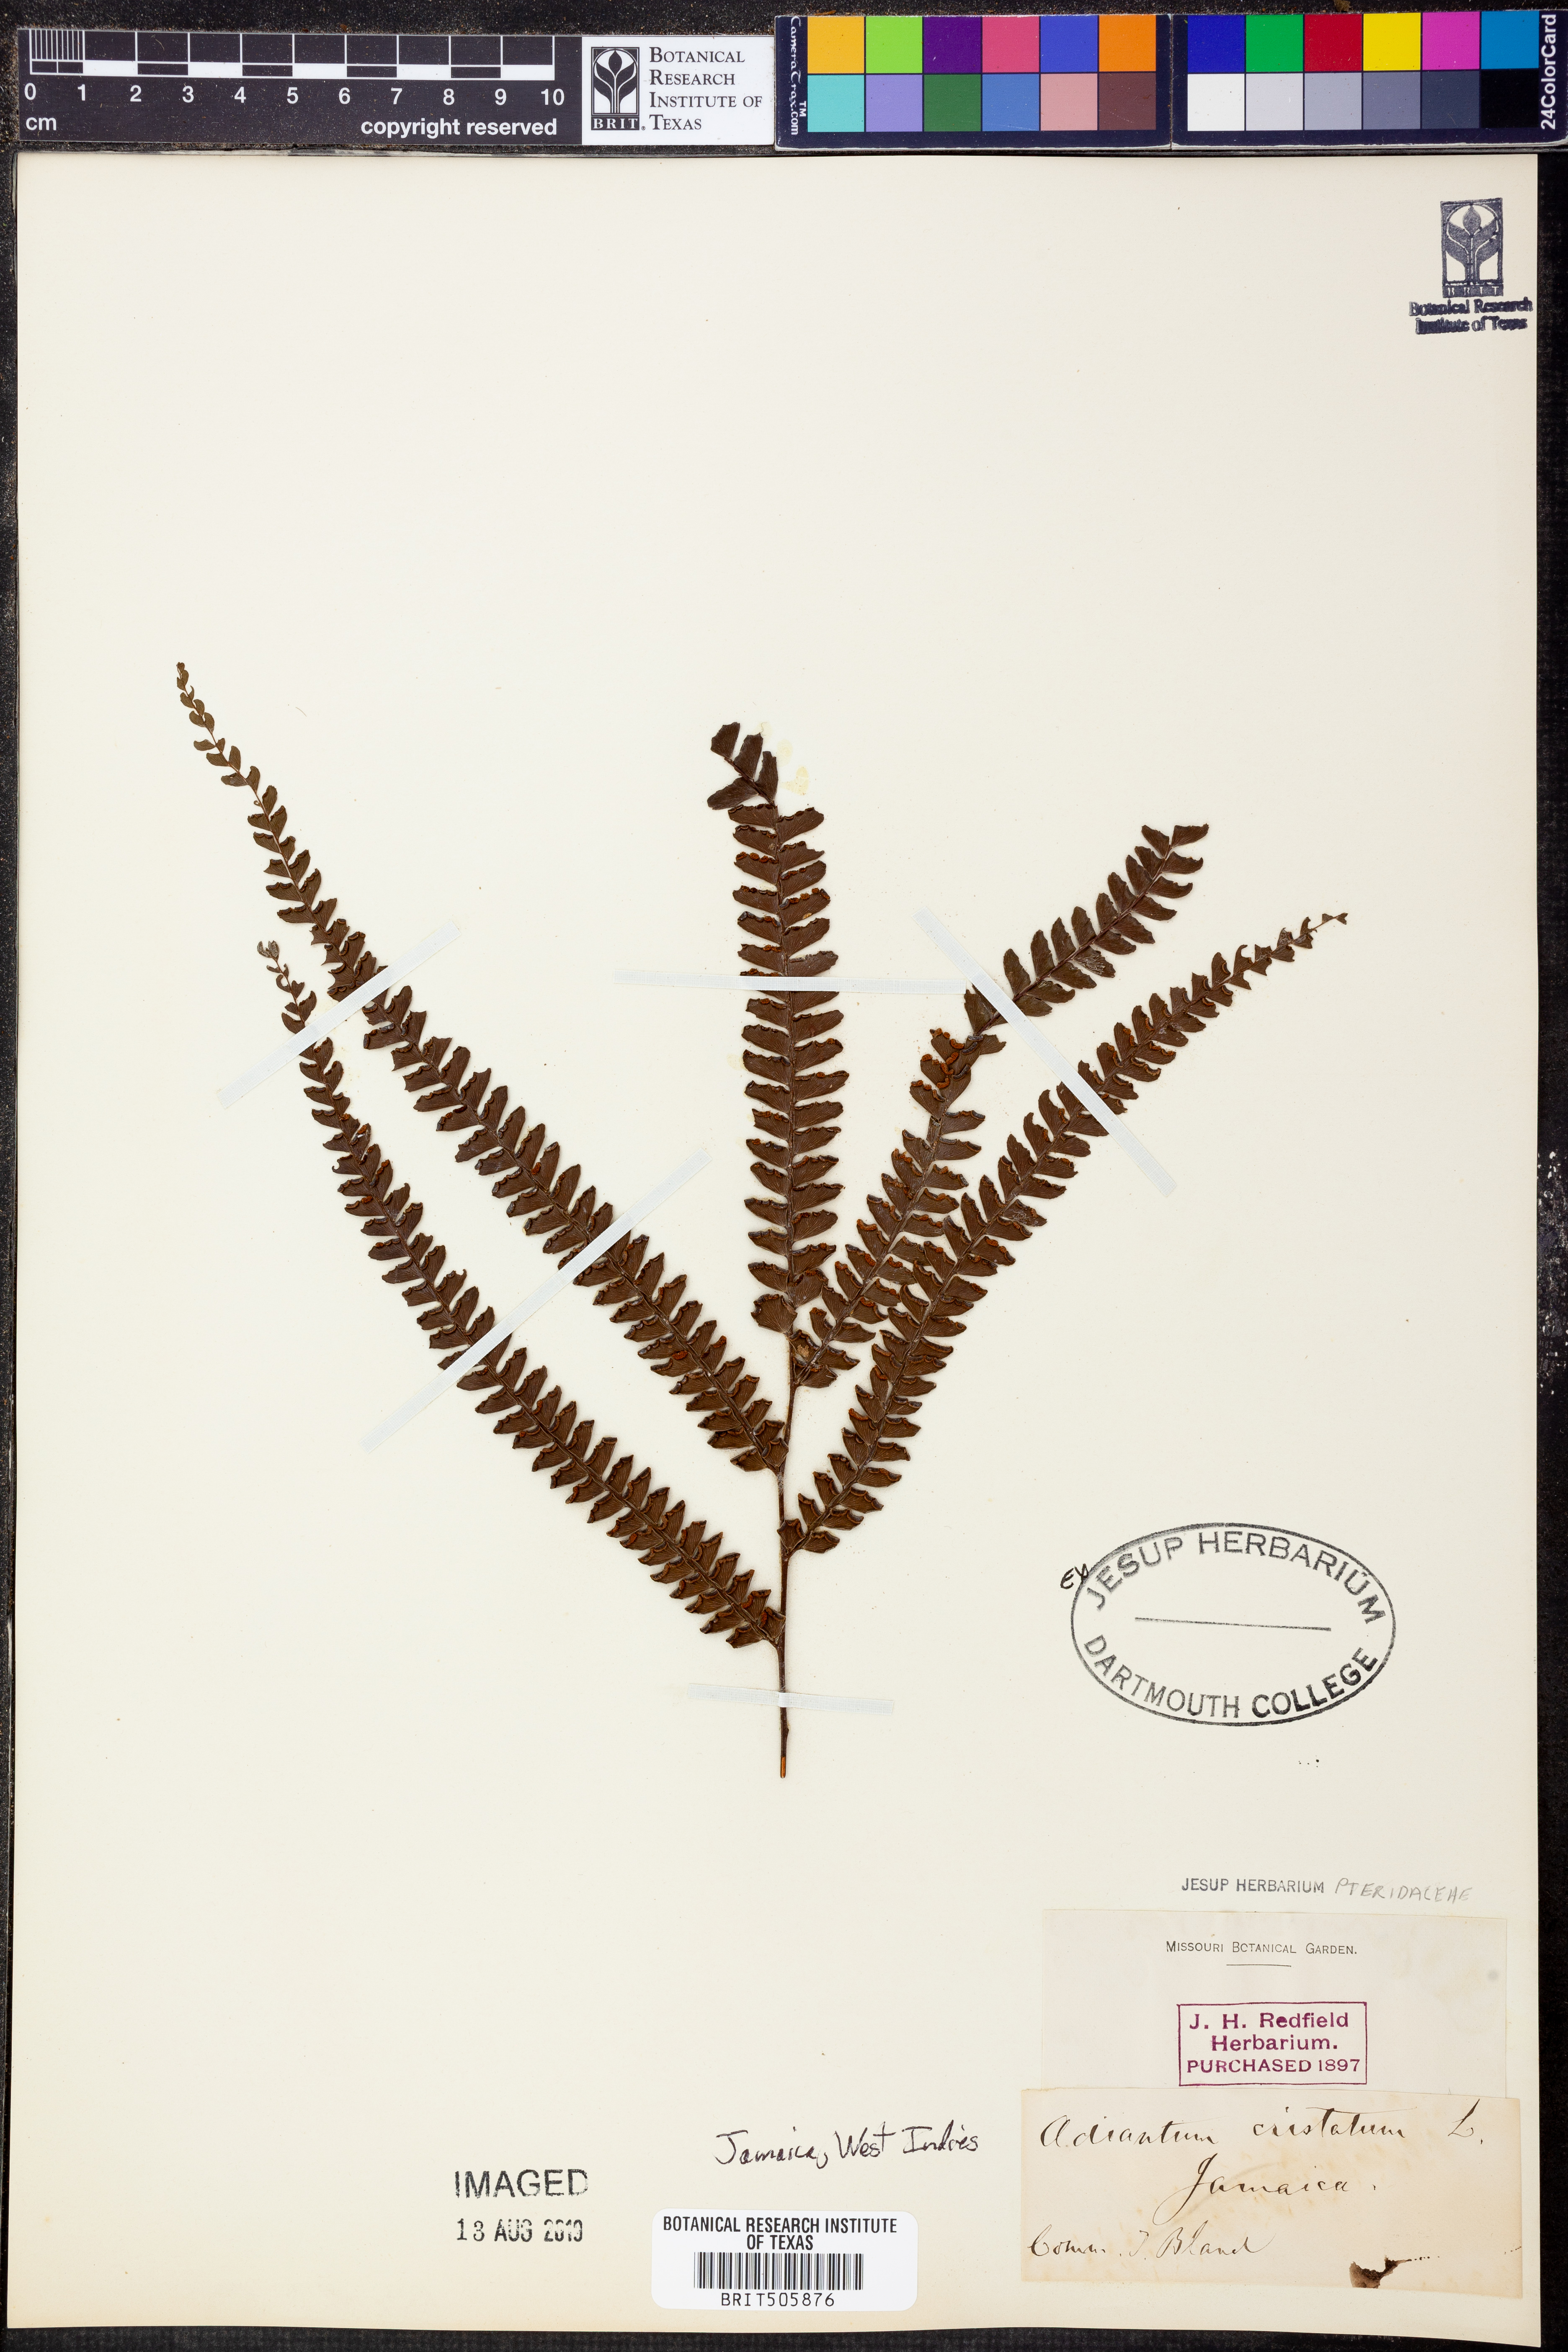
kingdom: Plantae
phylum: Tracheophyta
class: Polypodiopsida
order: Polypodiales
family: Pteridaceae
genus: Adiantum
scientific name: Adiantum pyramidale
